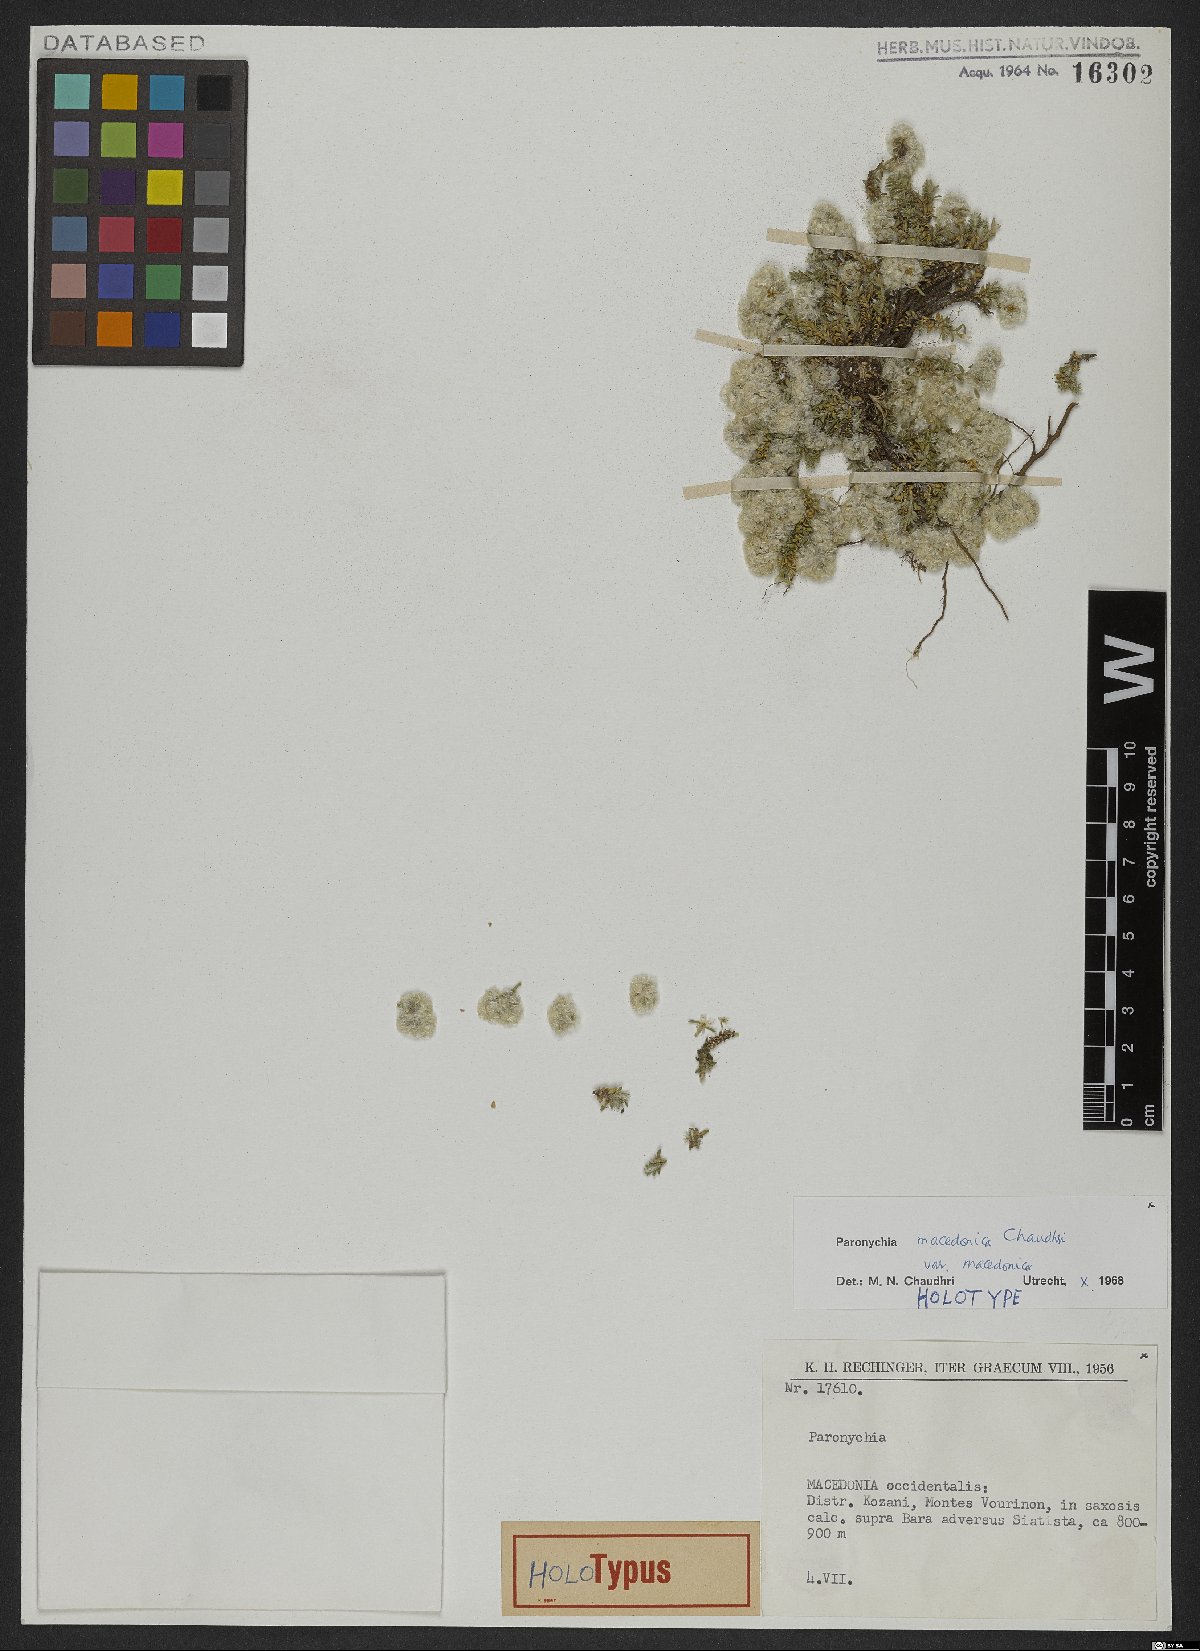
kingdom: Plantae
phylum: Tracheophyta
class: Magnoliopsida
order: Caryophyllales
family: Caryophyllaceae
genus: Paronychia
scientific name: Paronychia macedonica
